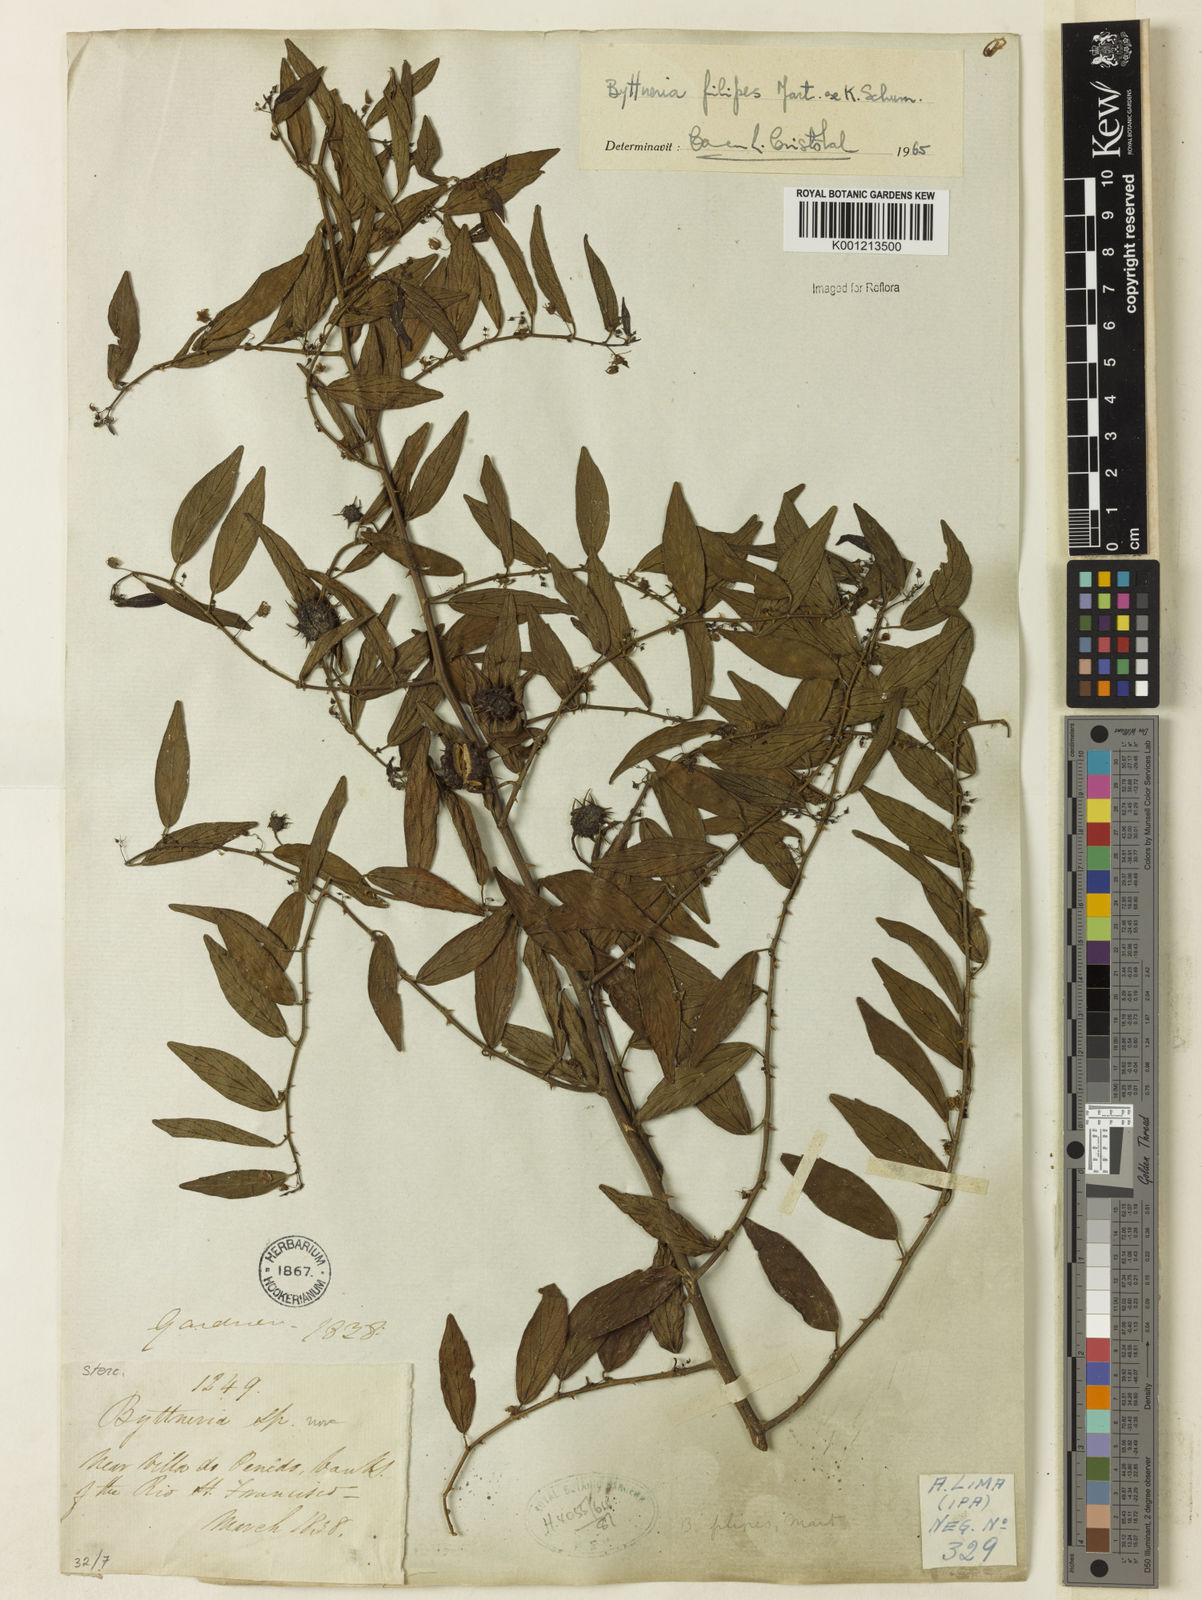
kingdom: Plantae
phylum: Tracheophyta
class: Magnoliopsida
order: Malvales
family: Malvaceae
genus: Byttneria
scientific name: Byttneria filipes
